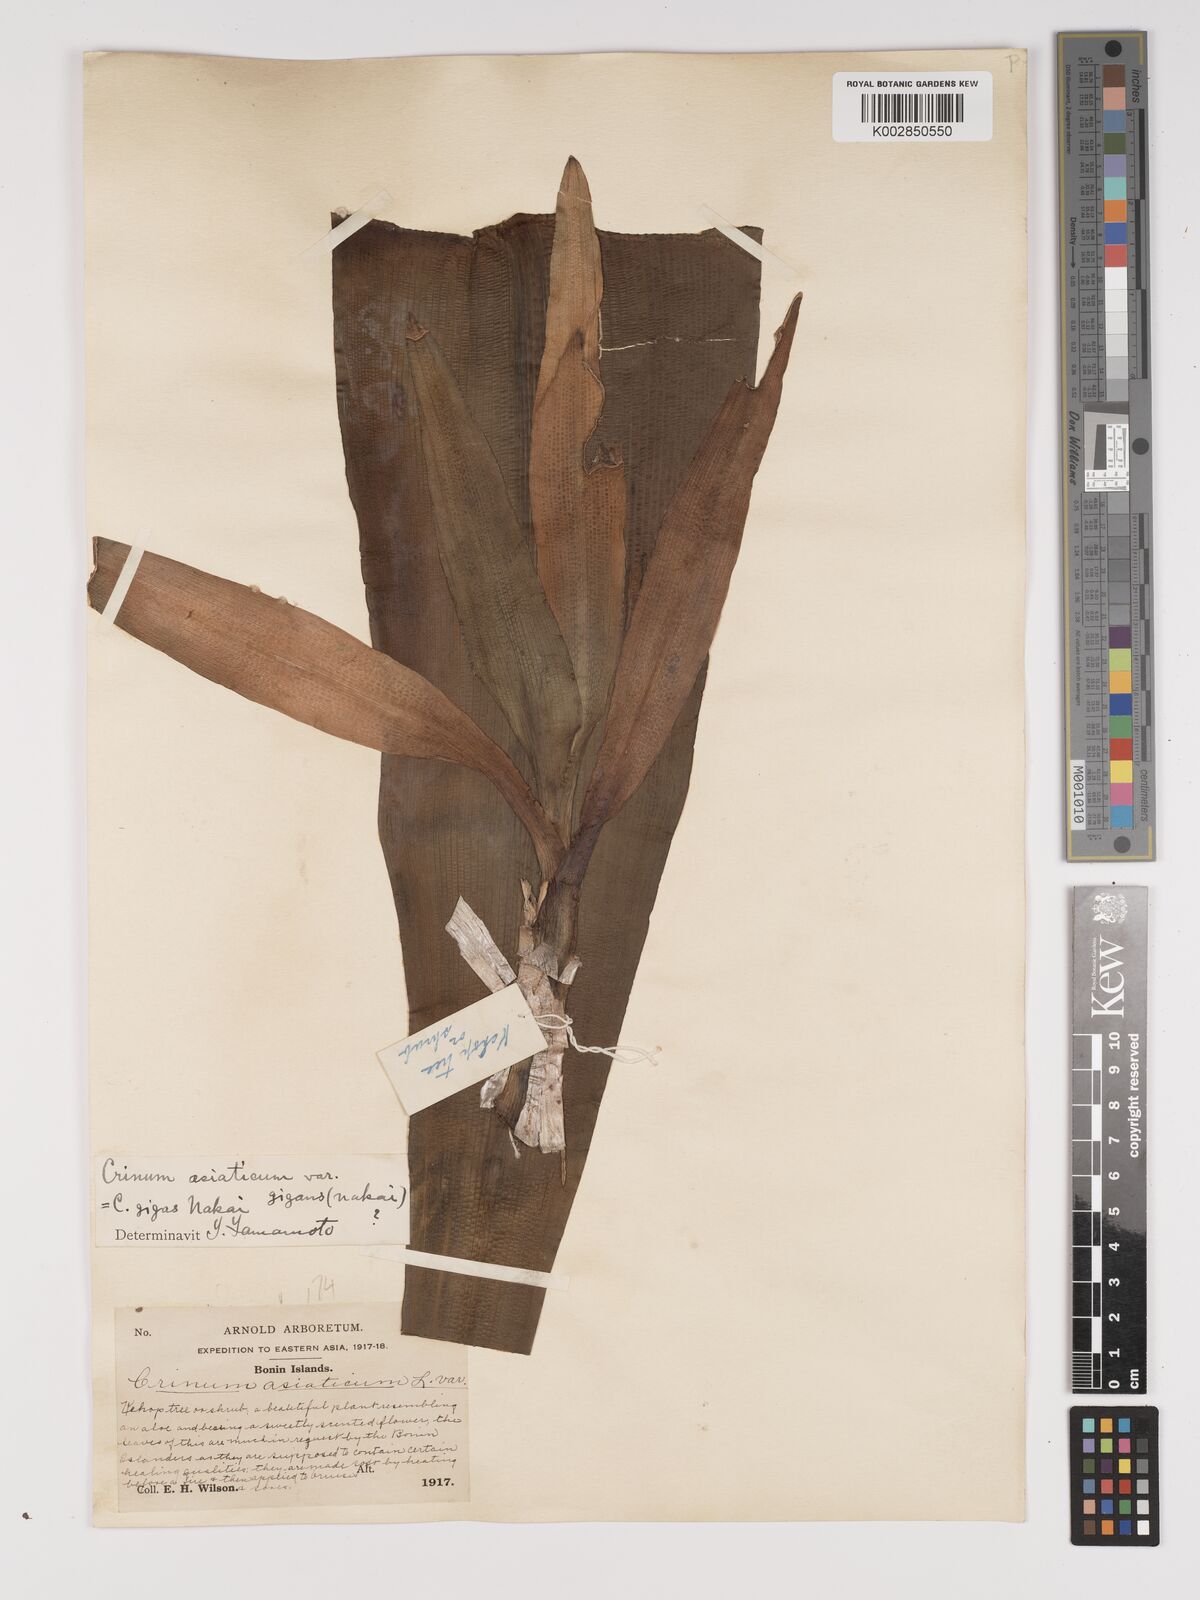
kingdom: Plantae
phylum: Tracheophyta
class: Liliopsida
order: Asparagales
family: Amaryllidaceae
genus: Crinum
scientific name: Crinum asiaticum
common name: Poisonbulb
